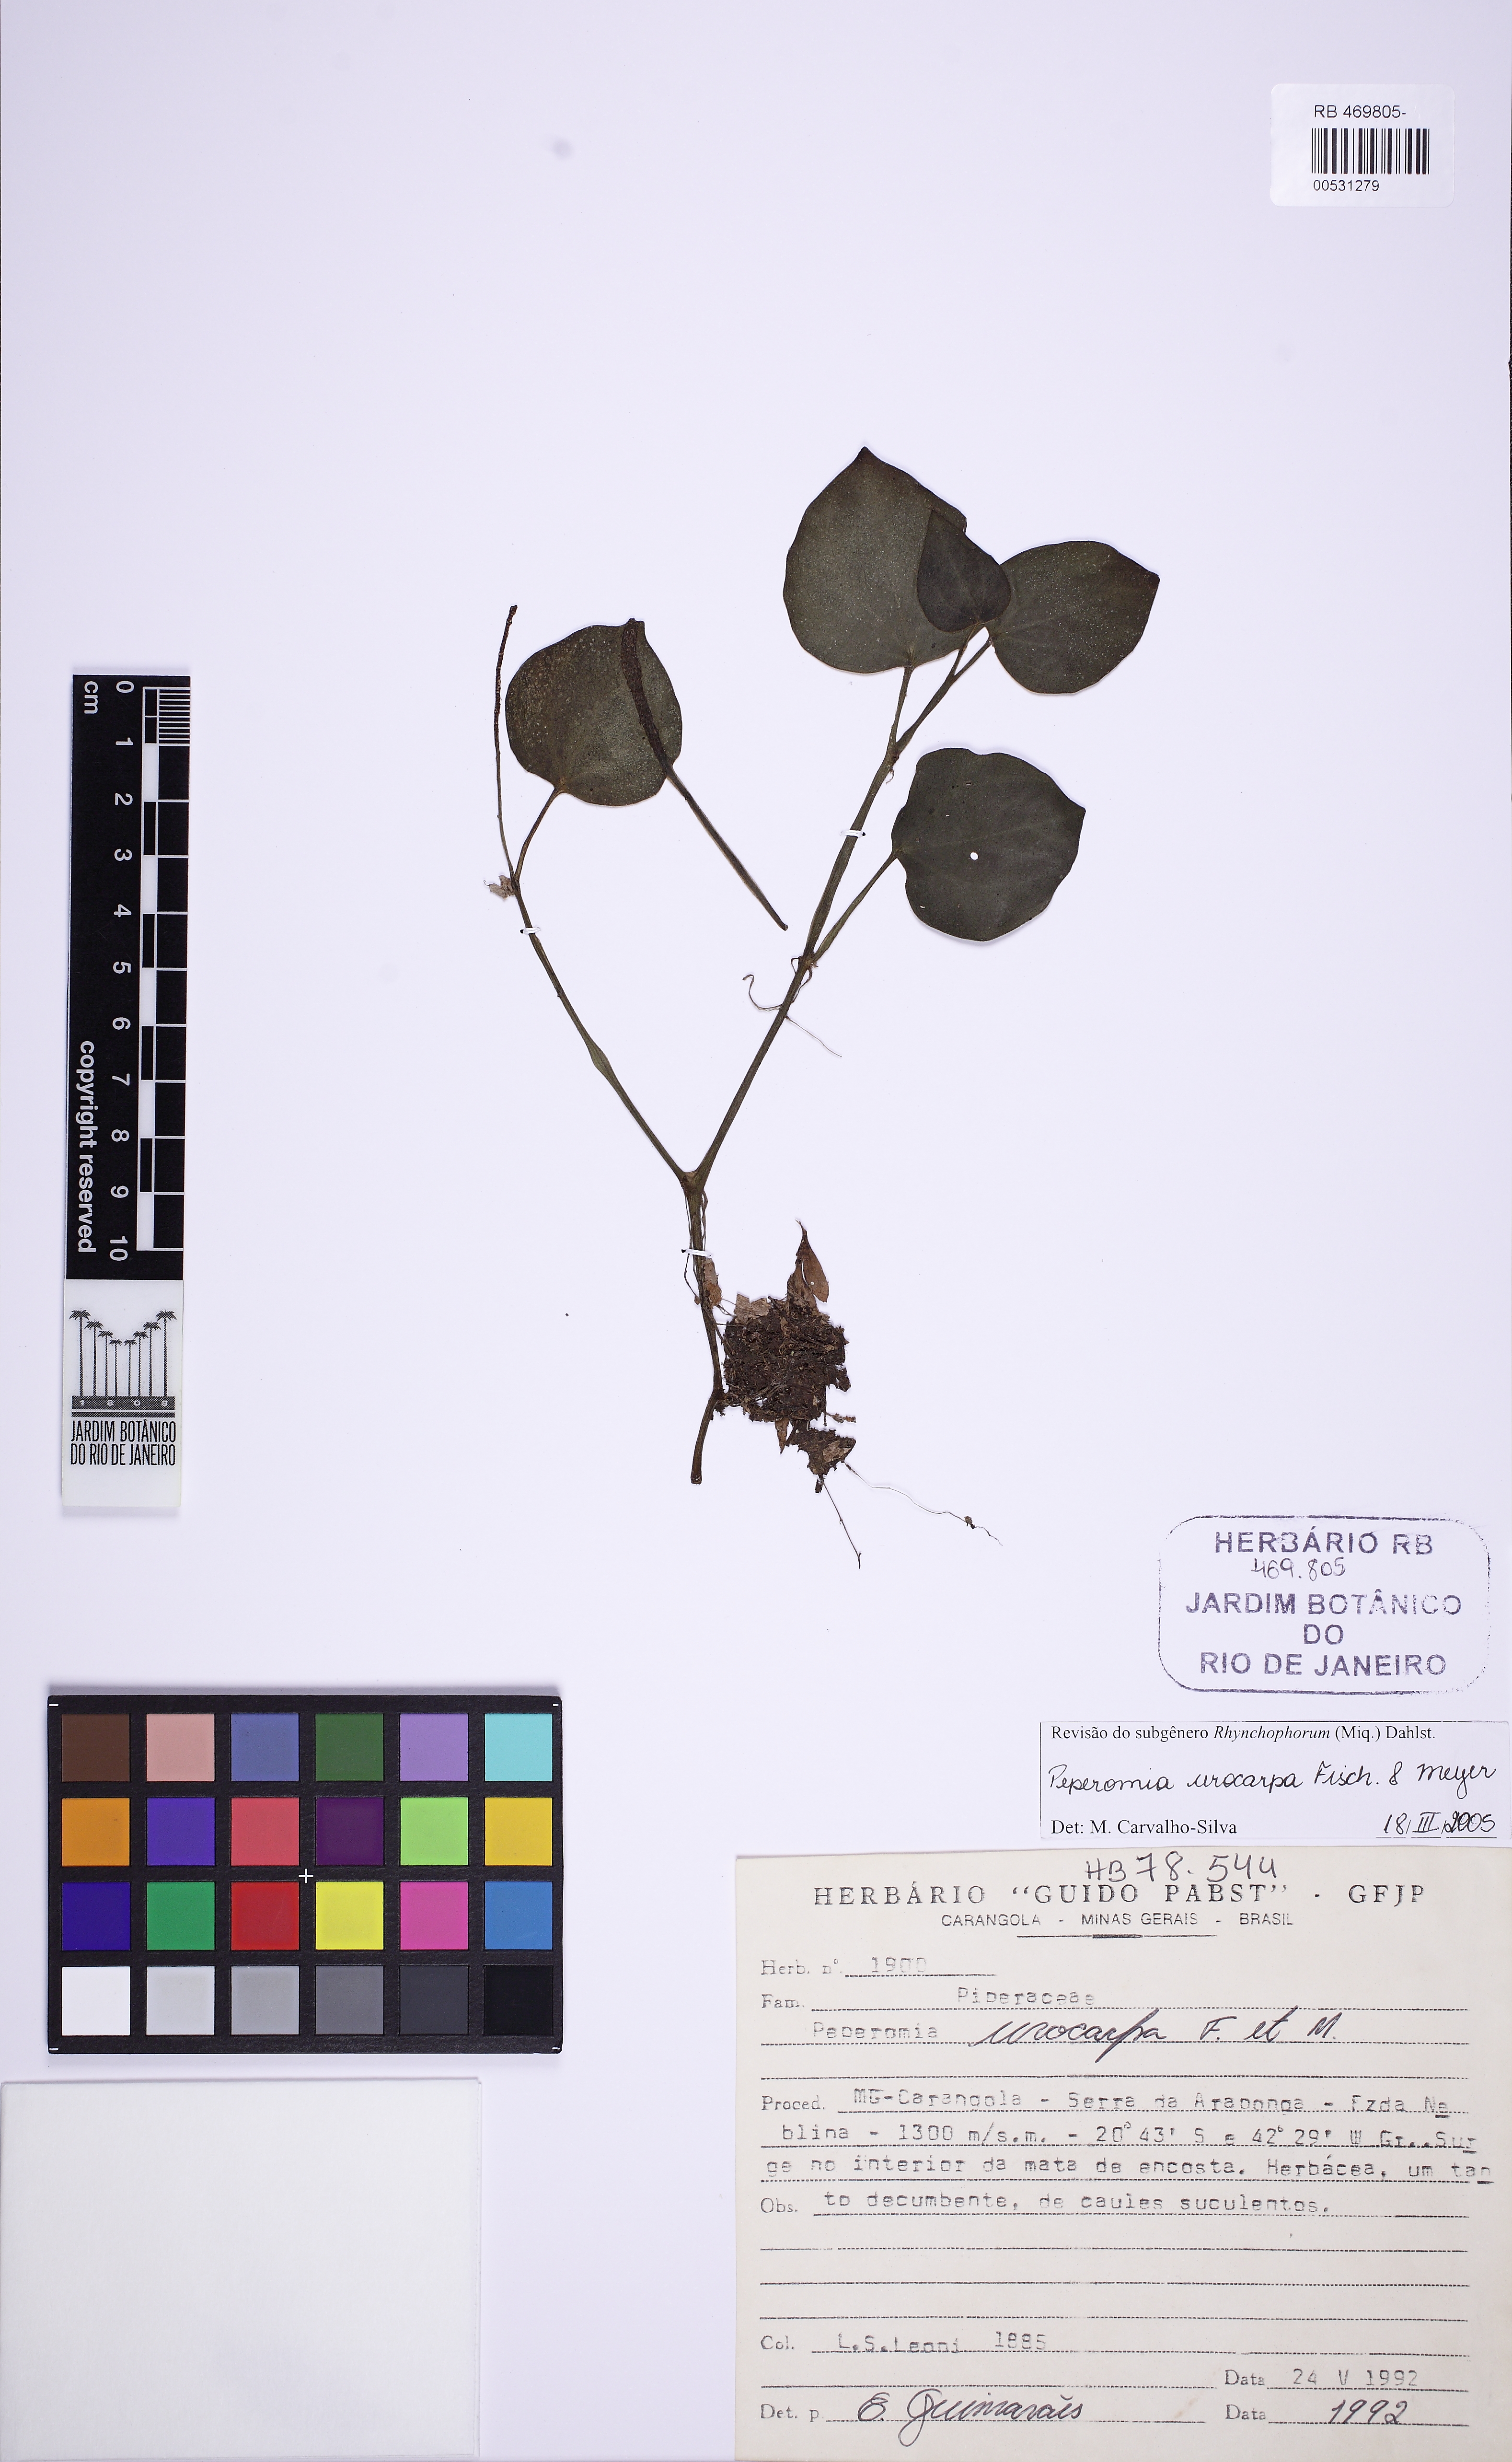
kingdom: Plantae
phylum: Tracheophyta
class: Magnoliopsida
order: Piperales
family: Piperaceae
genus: Peperomia
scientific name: Peperomia urocarpa
